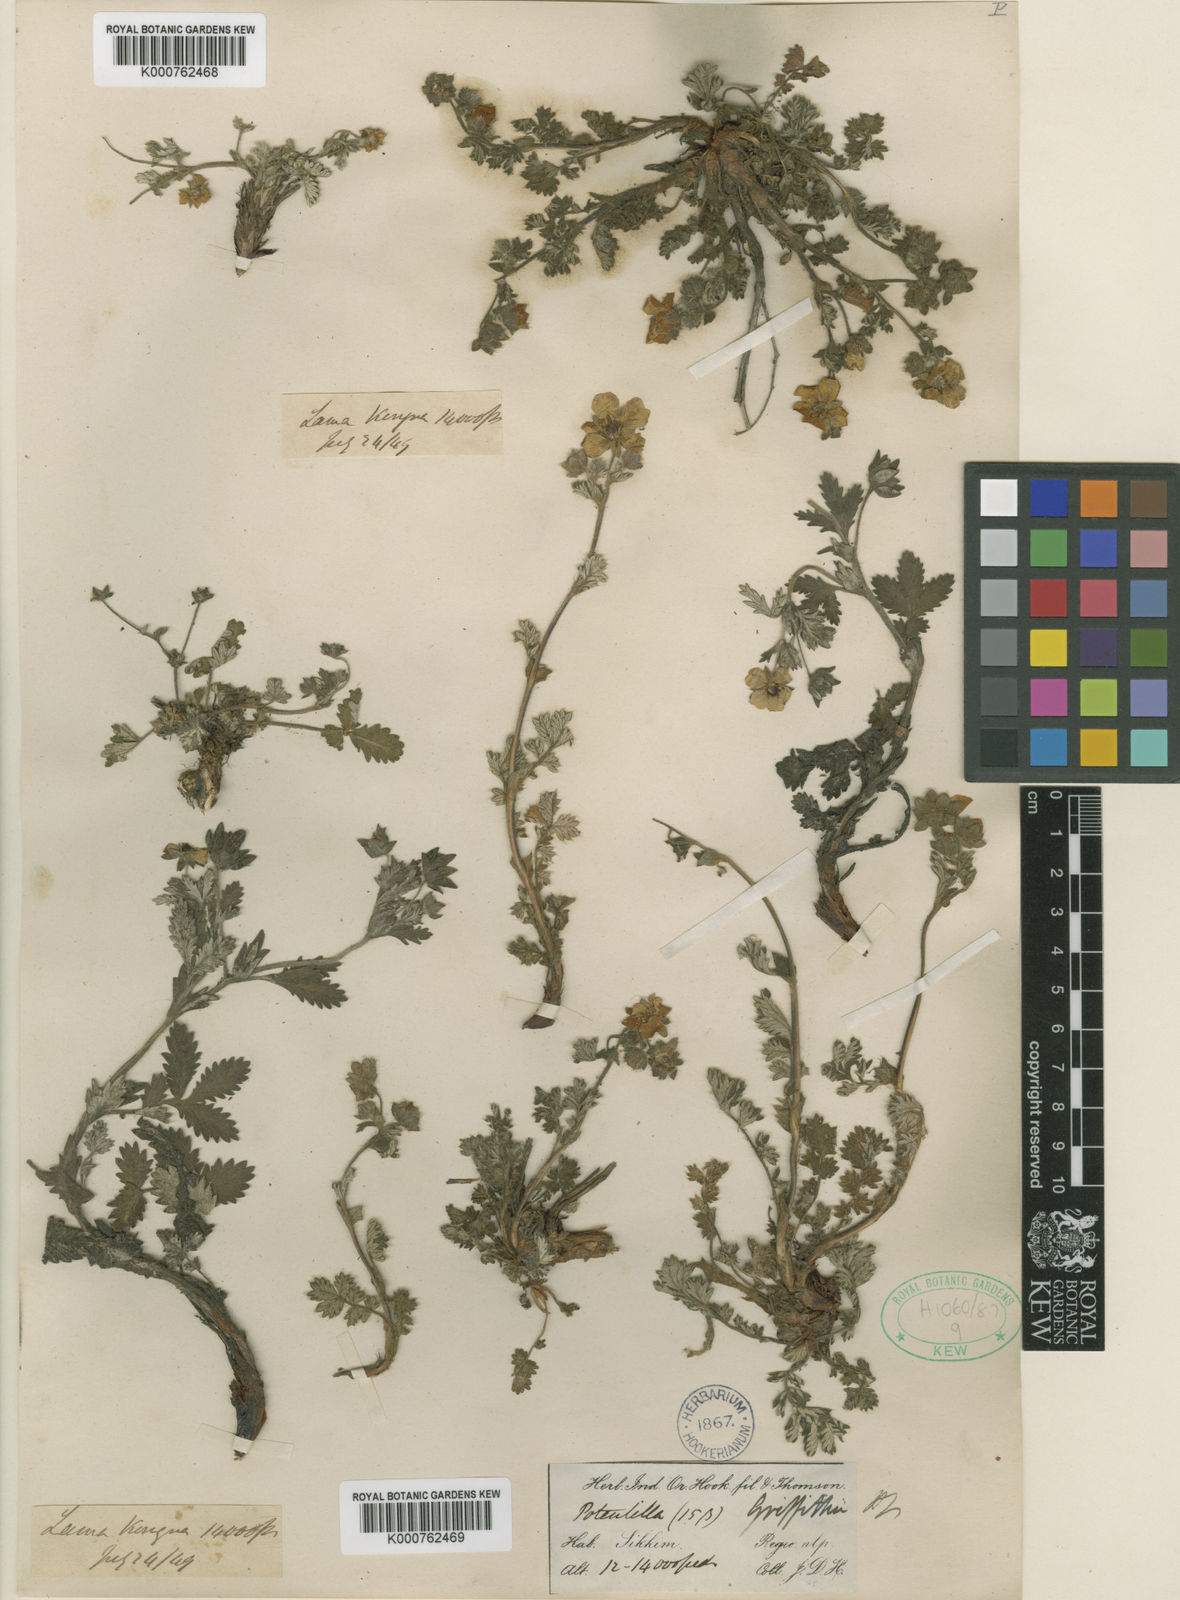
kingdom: Plantae
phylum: Tracheophyta
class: Magnoliopsida
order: Rosales
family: Rosaceae
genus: Potentilla
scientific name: Potentilla griffithii
